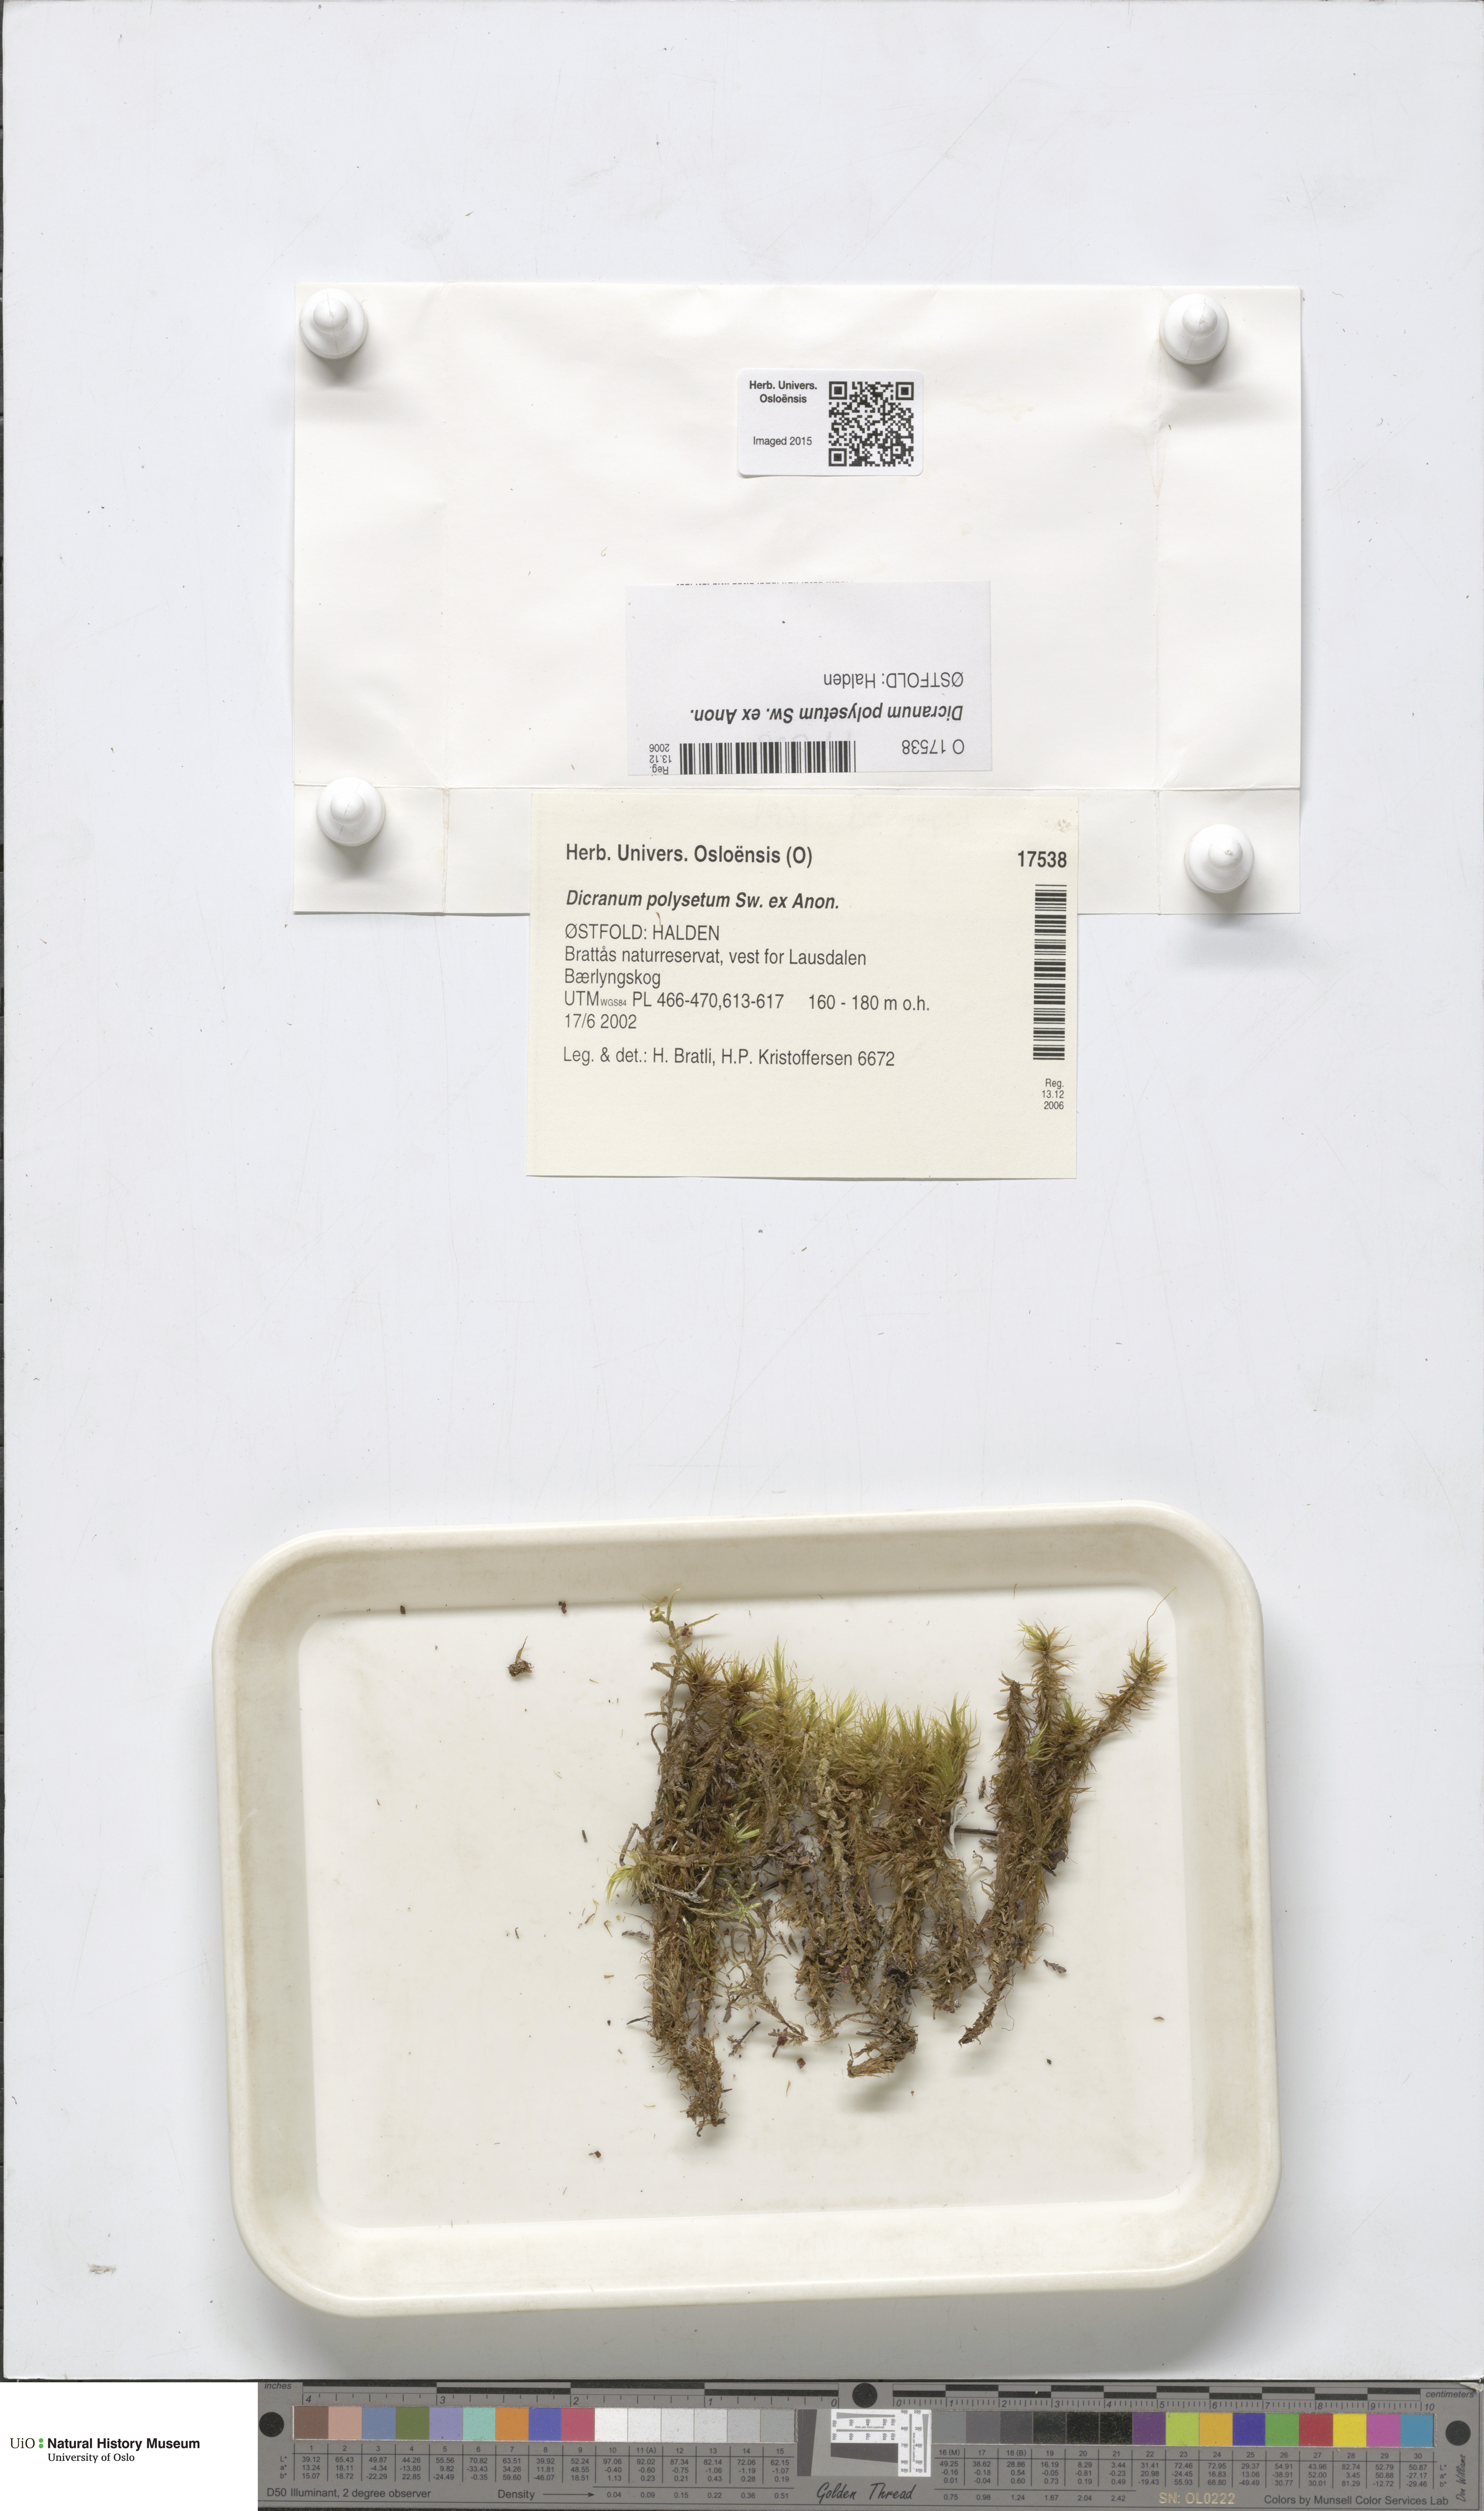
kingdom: Plantae
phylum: Bryophyta
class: Bryopsida
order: Dicranales
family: Dicranaceae
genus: Dicranum
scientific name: Dicranum polysetum
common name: Rugose fork-moss
